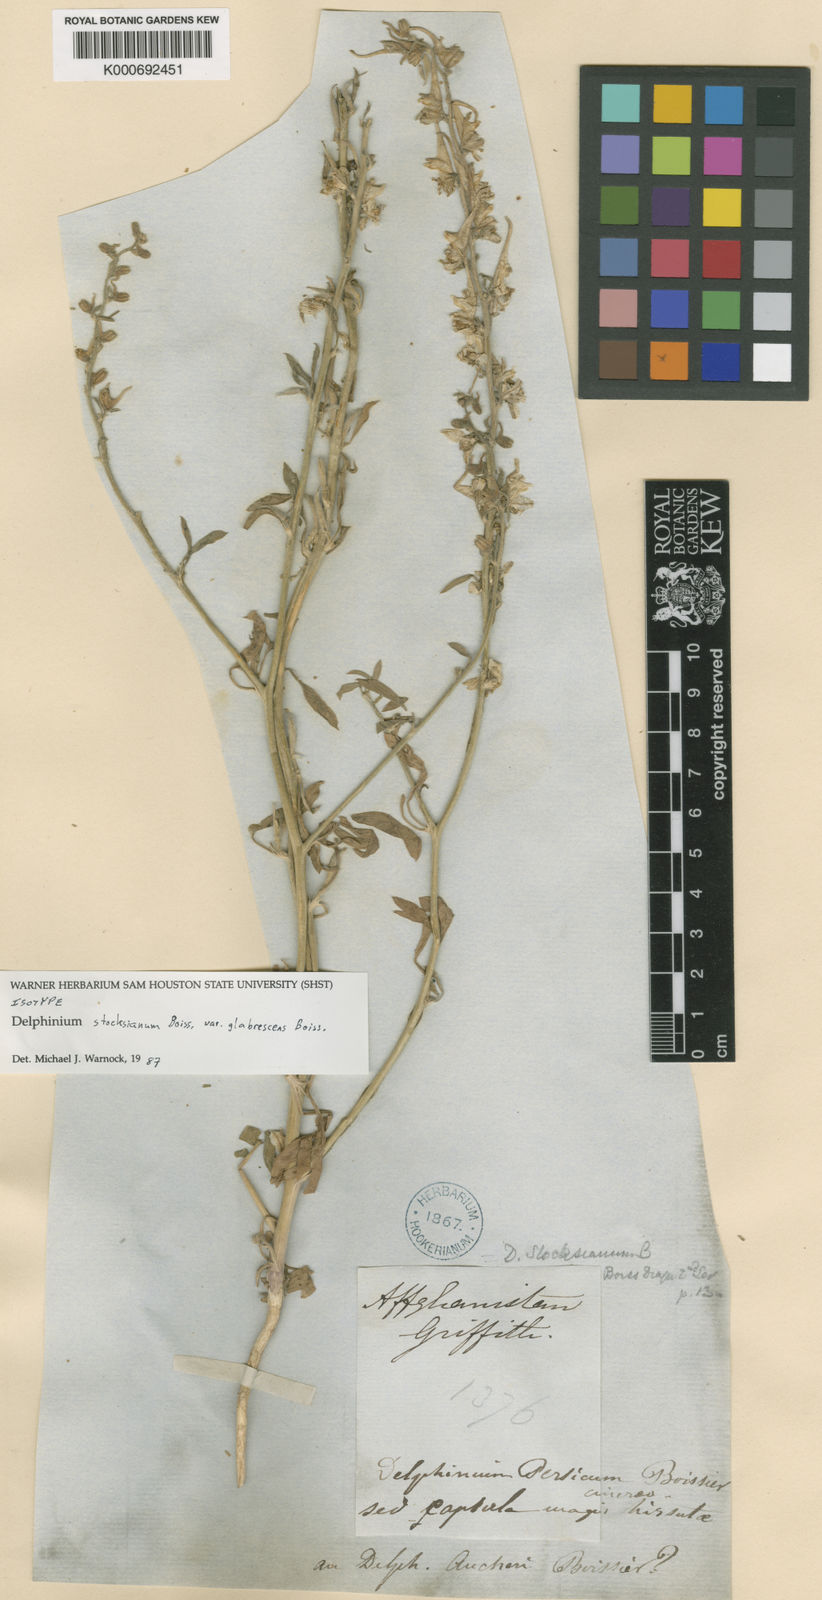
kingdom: Plantae
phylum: Tracheophyta
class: Magnoliopsida
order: Ranunculales
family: Ranunculaceae
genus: Delphinium
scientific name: Delphinium stocksianum
